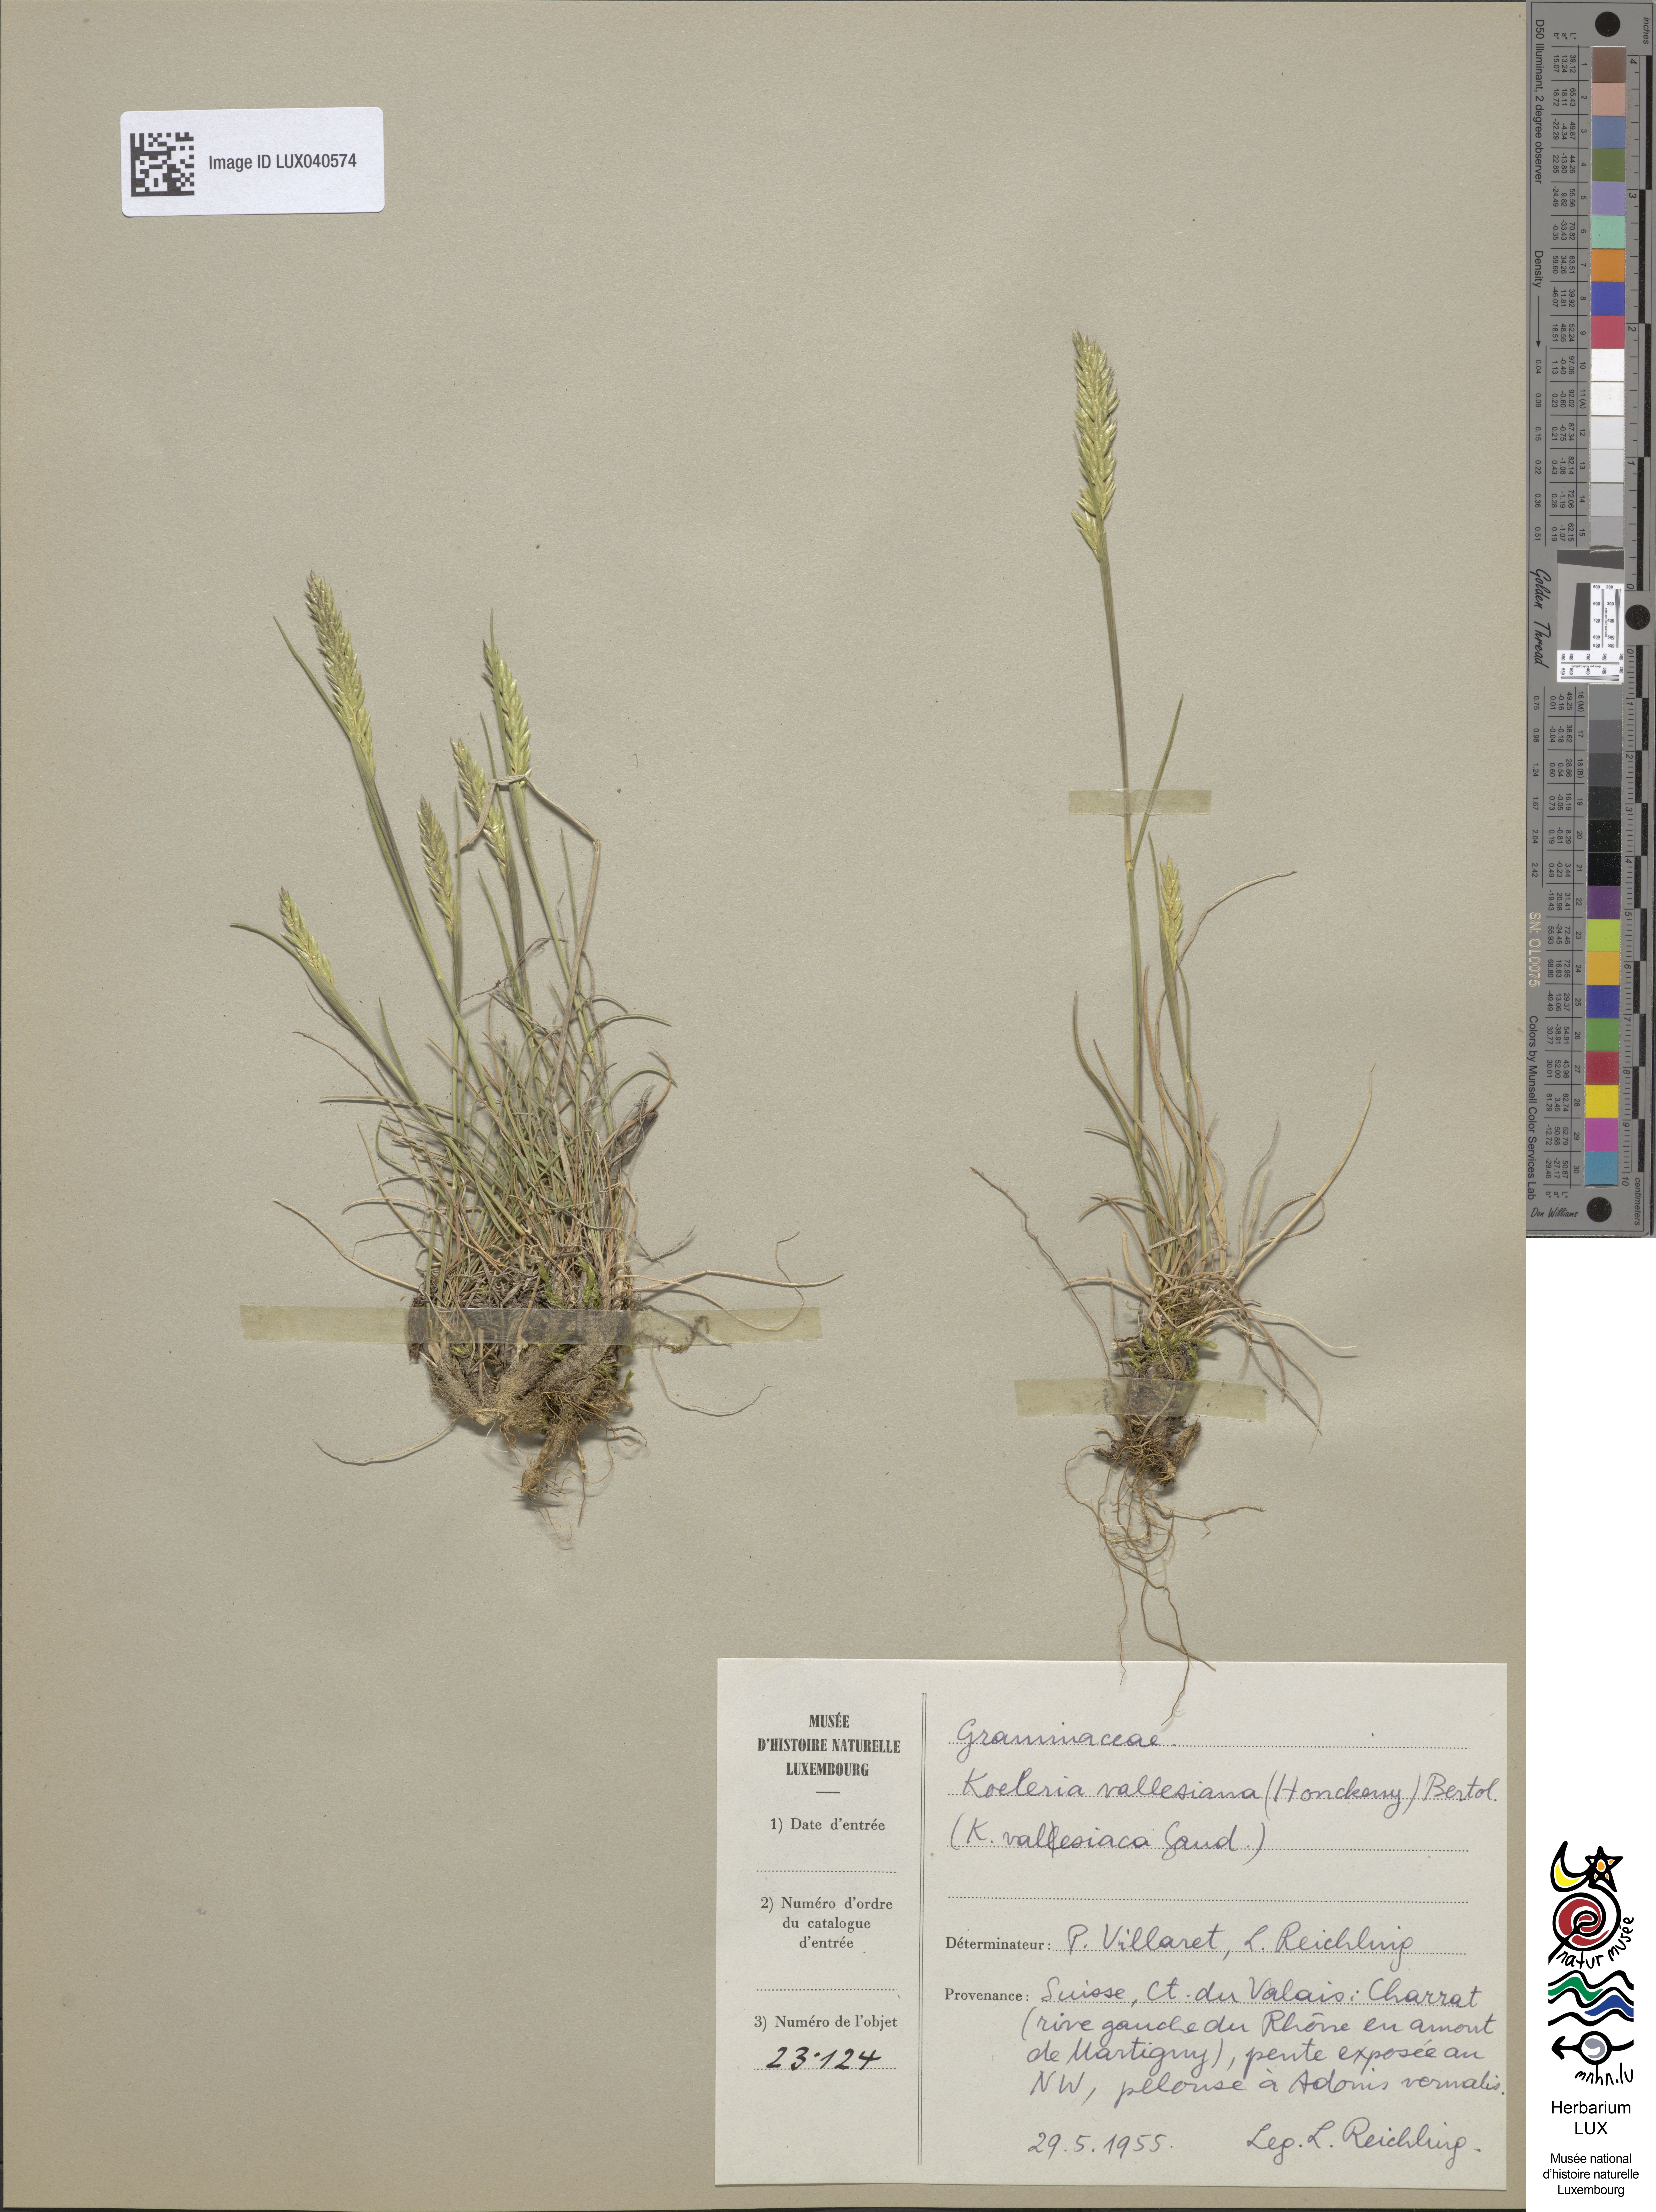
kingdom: Plantae
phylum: Tracheophyta
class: Liliopsida
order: Poales
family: Poaceae
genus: Koeleria
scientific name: Koeleria vallesiana
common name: Somerset hair-grass
